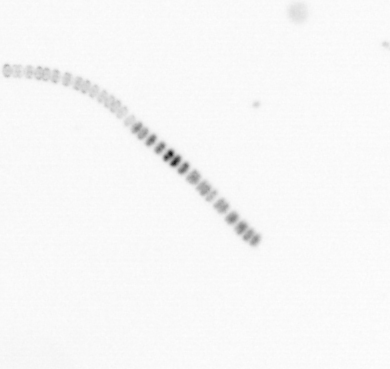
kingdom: Chromista
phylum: Ochrophyta
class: Bacillariophyceae
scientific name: Bacillariophyceae
